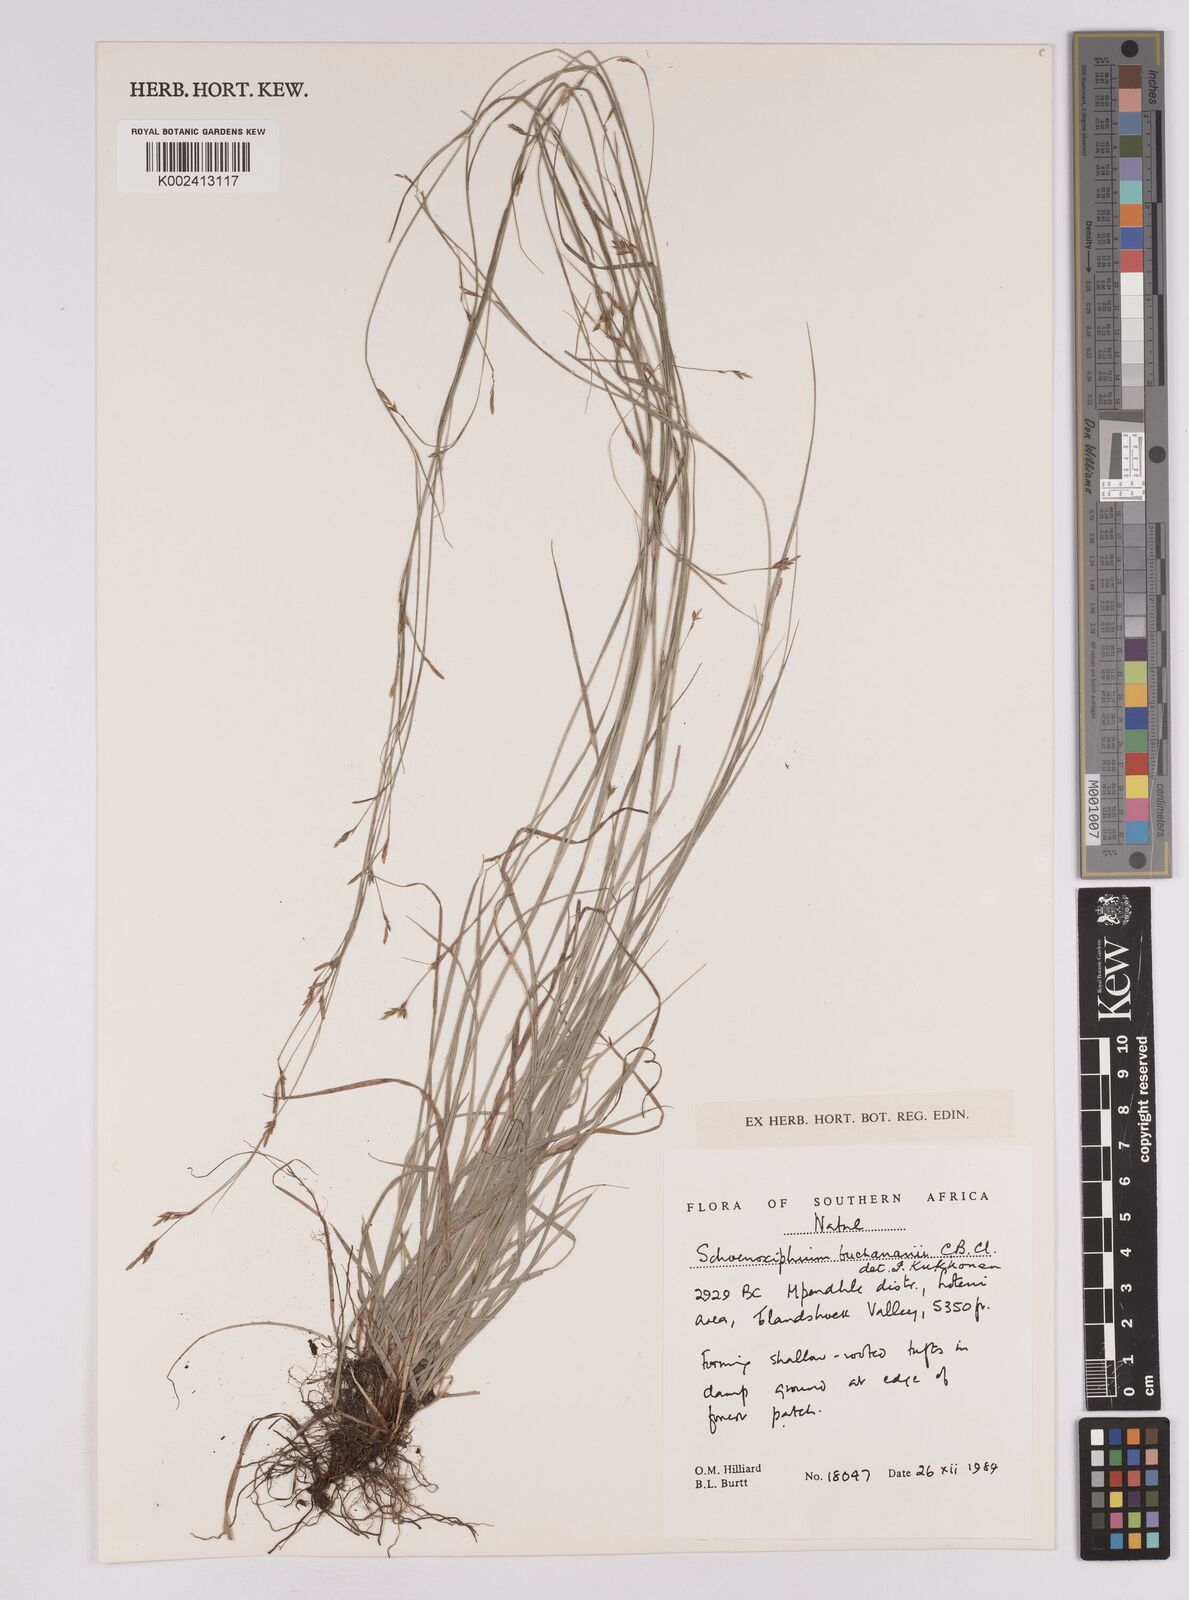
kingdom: Plantae
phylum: Tracheophyta
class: Liliopsida
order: Poales
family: Cyperaceae
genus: Carex
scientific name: Carex kukkoneniana
